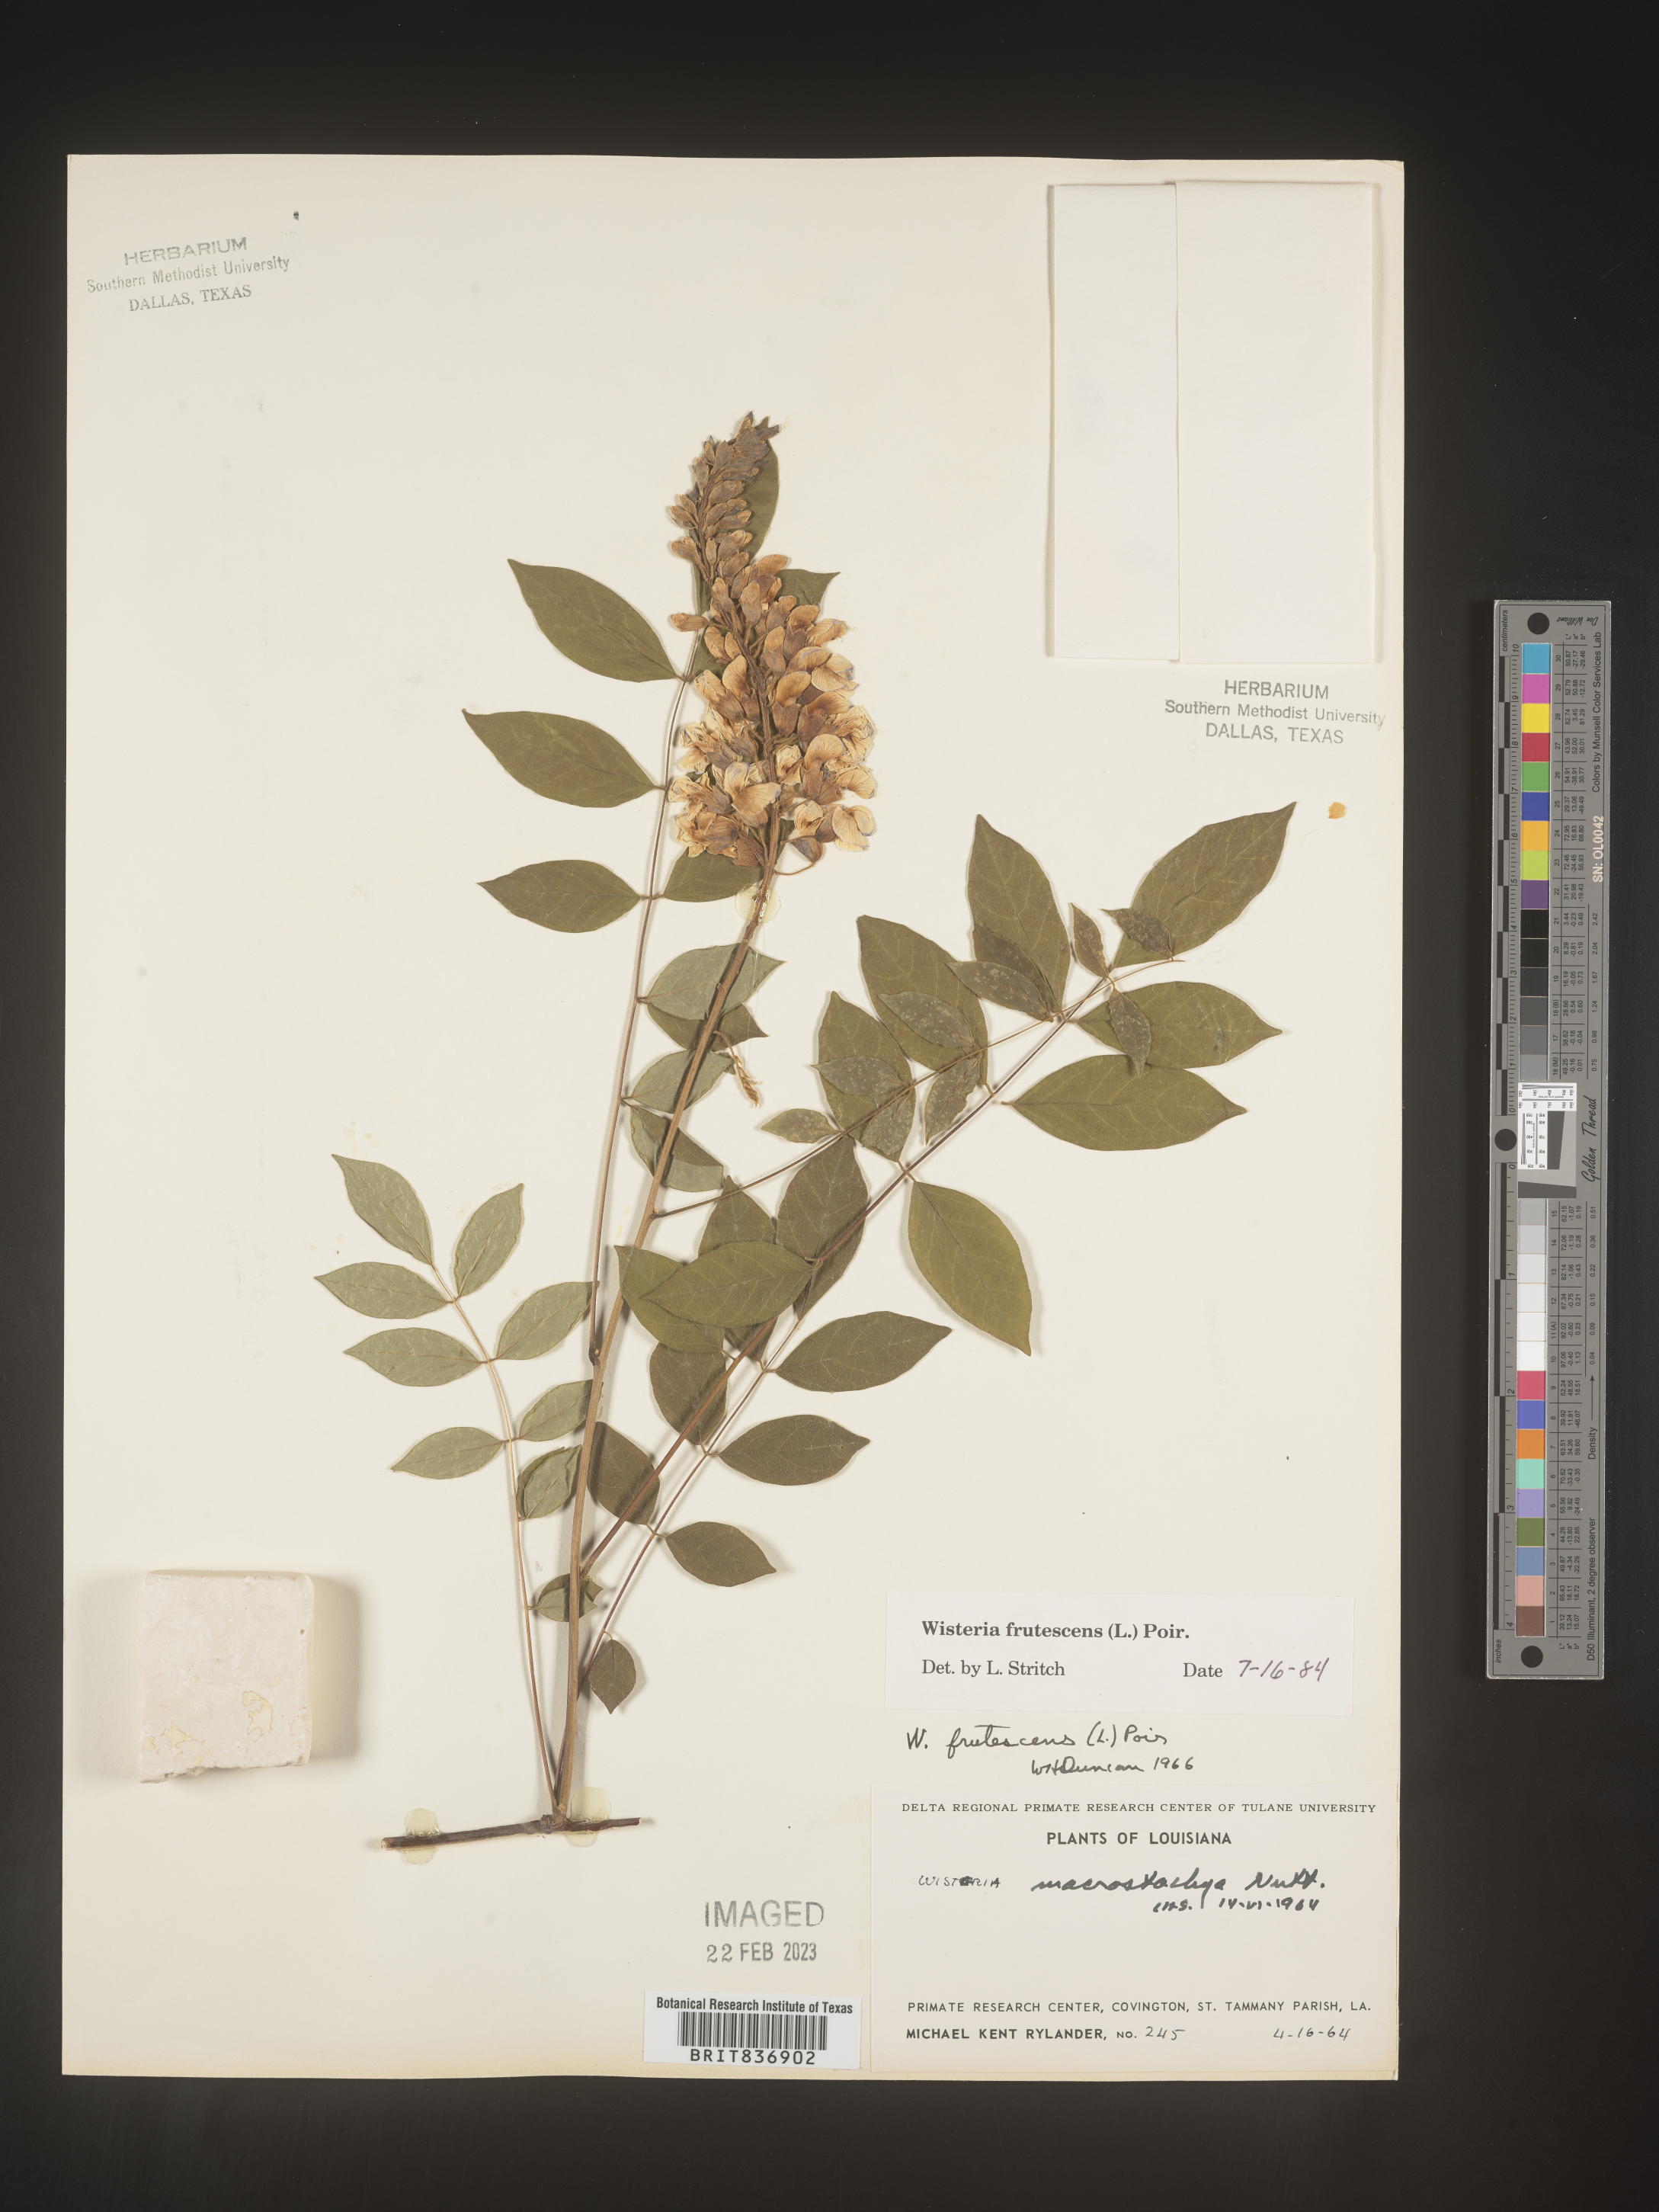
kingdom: Plantae
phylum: Tracheophyta
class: Magnoliopsida
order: Fabales
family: Fabaceae
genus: Wisteria
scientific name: Wisteria
